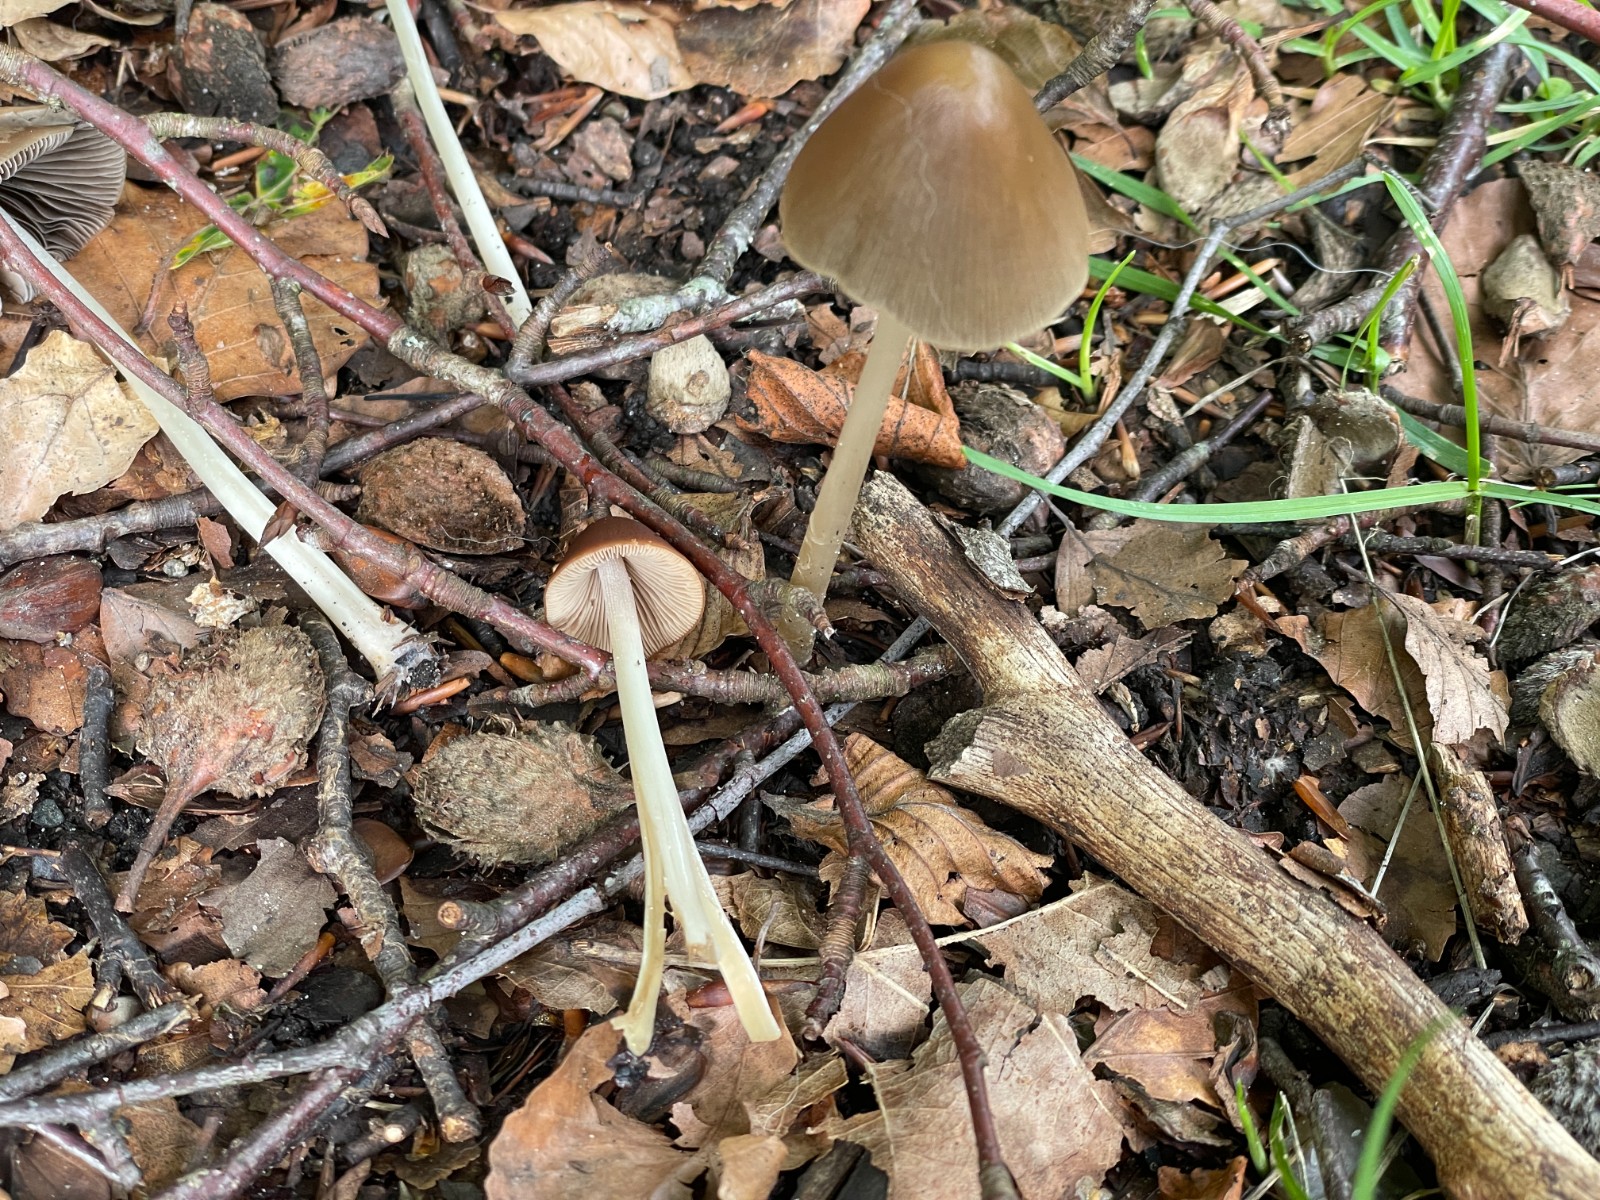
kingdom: Fungi
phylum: Basidiomycota
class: Agaricomycetes
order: Agaricales
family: Psathyrellaceae
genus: Parasola
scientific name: Parasola conopilea
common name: kegle-hjulhat
